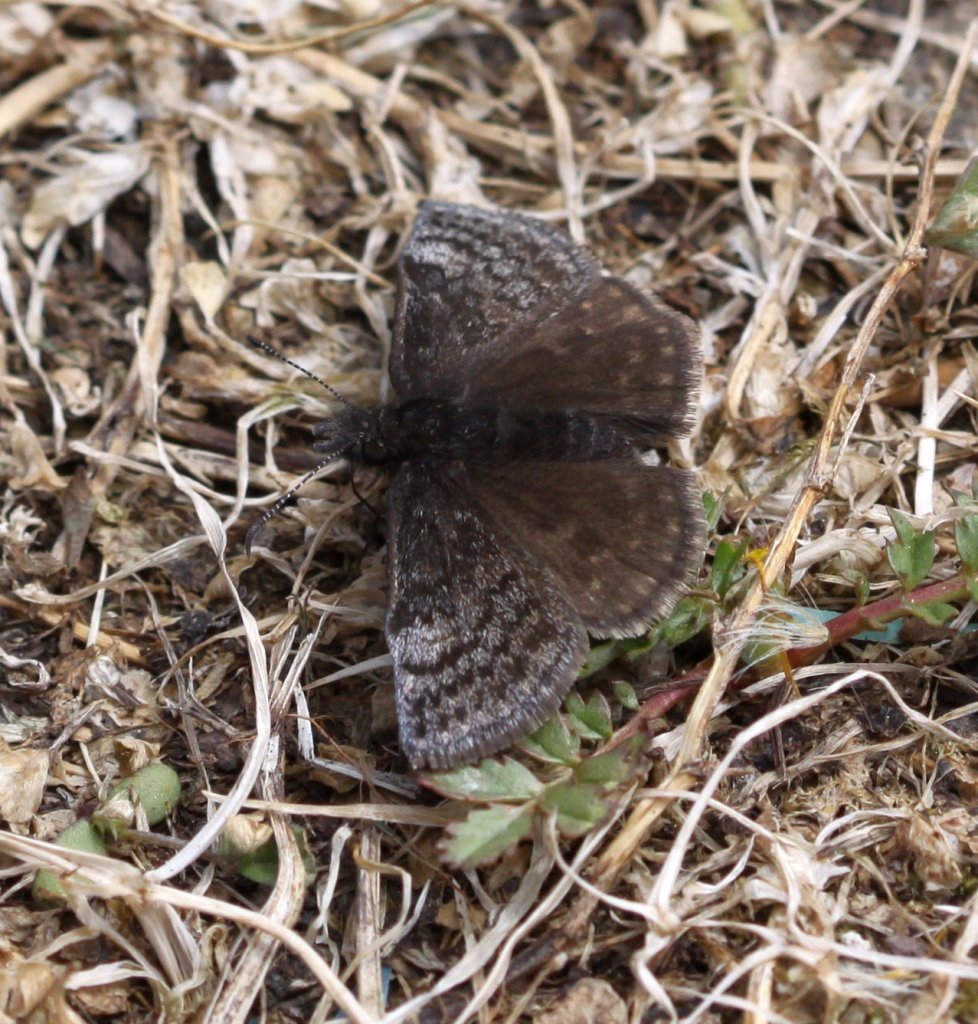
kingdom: Animalia
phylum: Arthropoda
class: Insecta
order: Lepidoptera
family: Hesperiidae
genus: Erynnis
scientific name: Erynnis icelus
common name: Dreamy Duskywing
